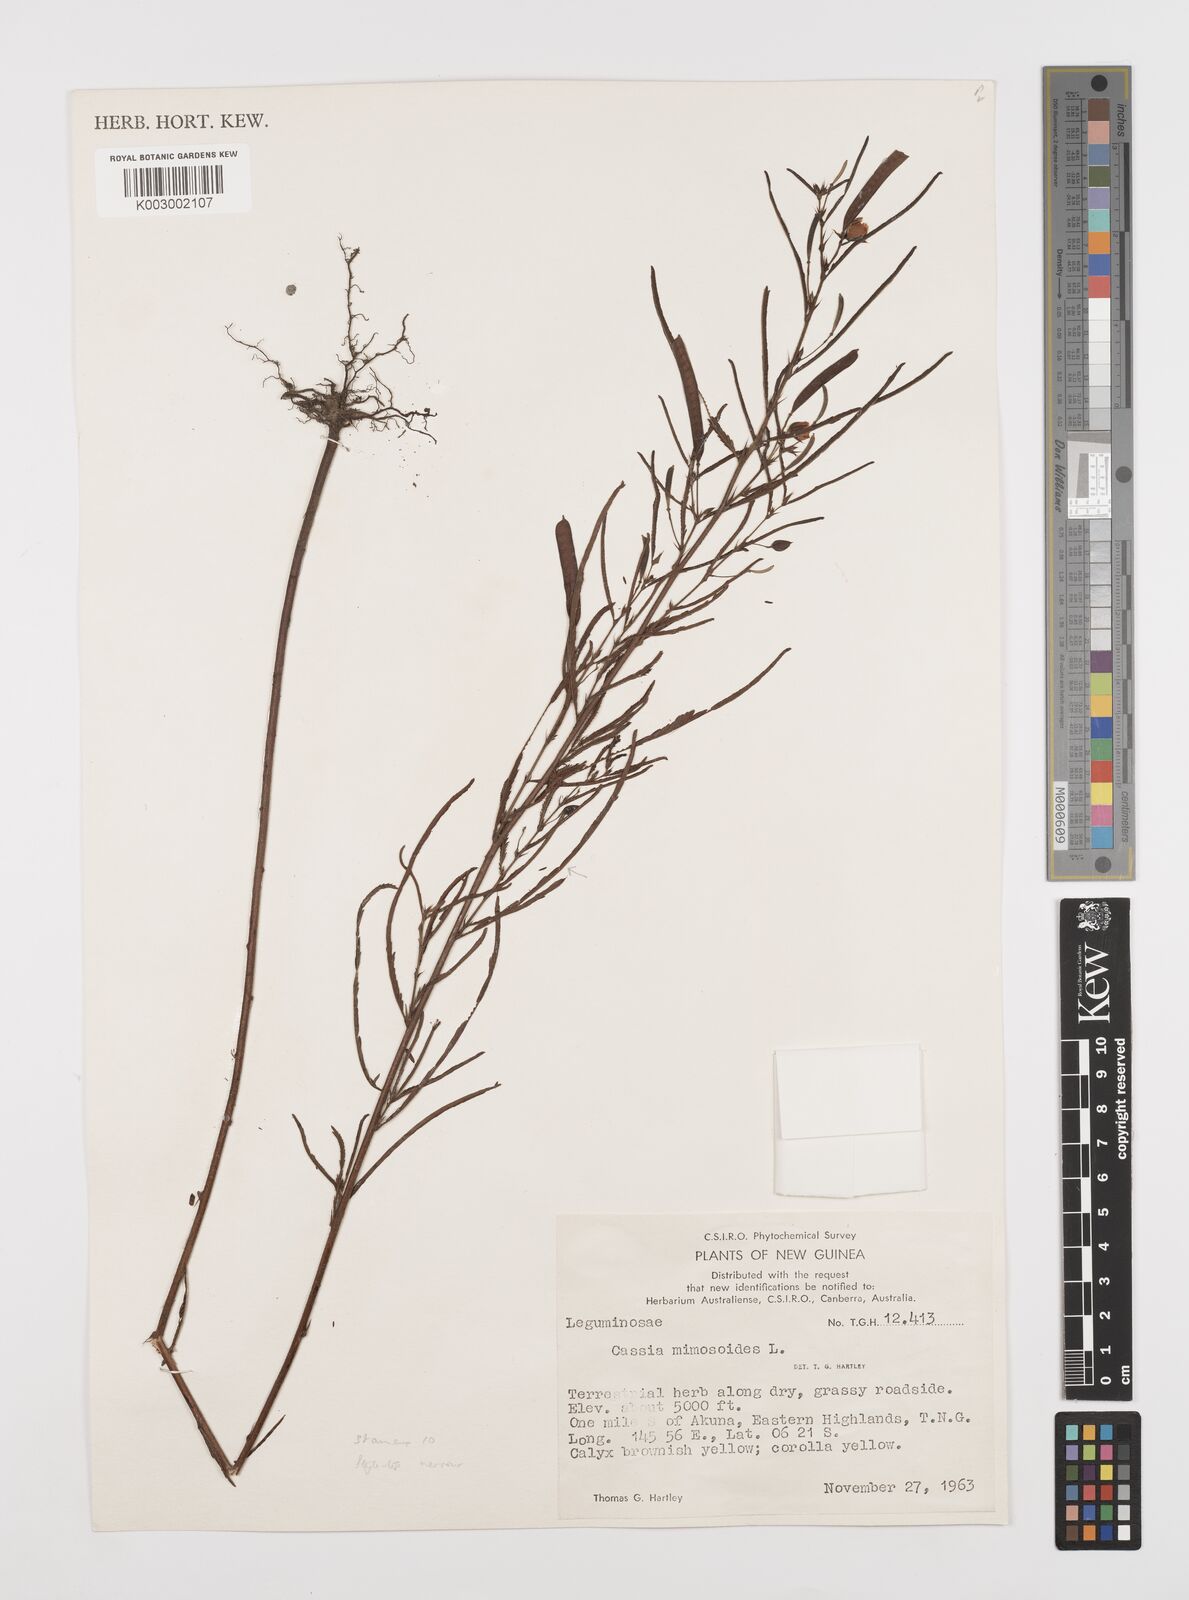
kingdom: Plantae
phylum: Tracheophyta
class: Magnoliopsida
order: Fabales
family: Fabaceae
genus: Chamaecrista
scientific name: Chamaecrista mimosoides
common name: Fish-bone cassia
